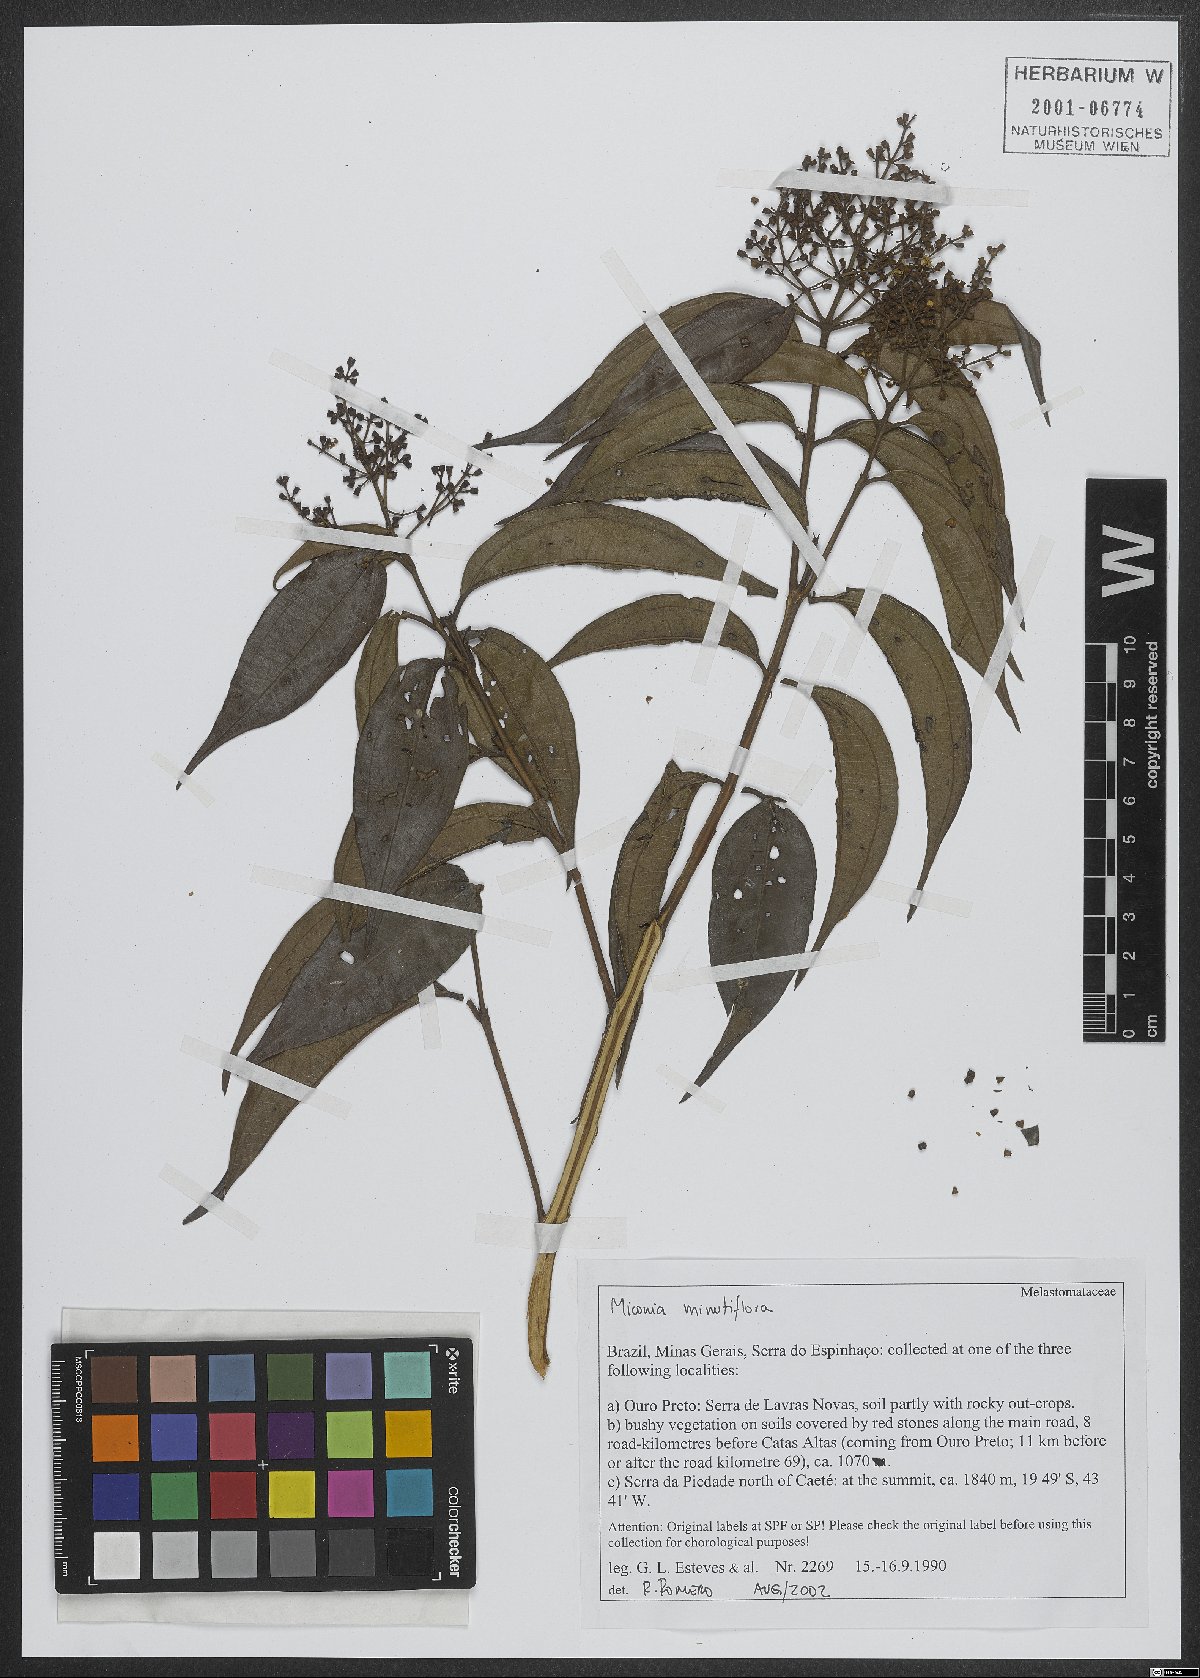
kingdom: Plantae
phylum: Tracheophyta
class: Magnoliopsida
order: Myrtales
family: Melastomataceae
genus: Miconia
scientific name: Miconia minutiflora
